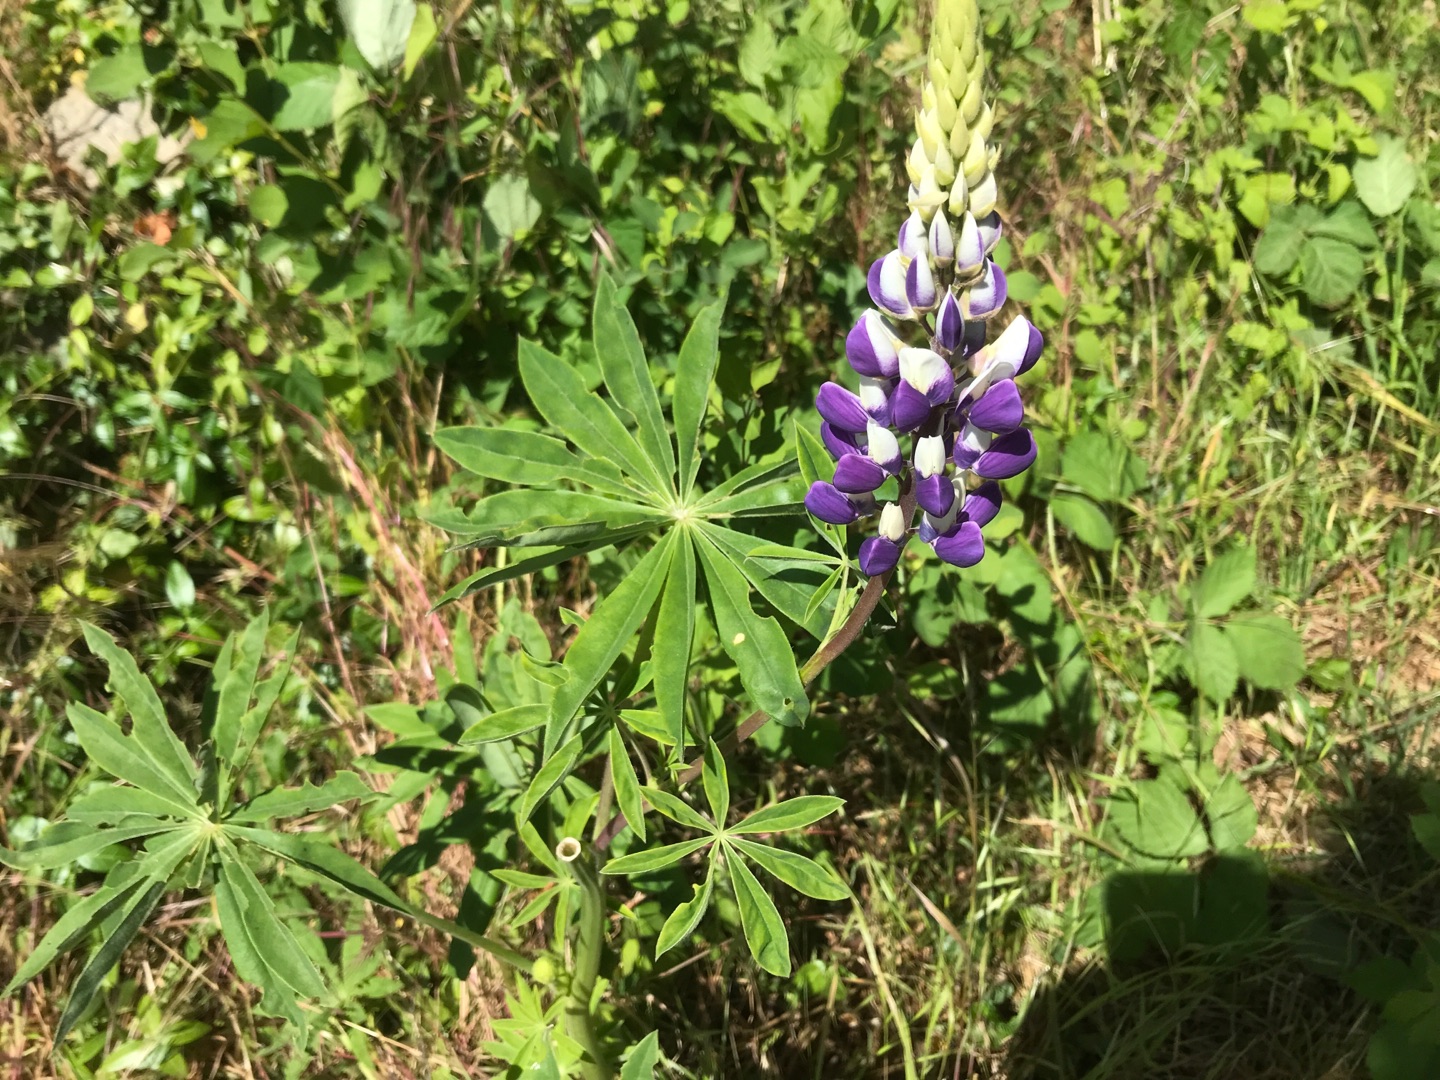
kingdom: Plantae
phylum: Tracheophyta
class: Magnoliopsida
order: Fabales
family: Fabaceae
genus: Lupinus
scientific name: Lupinus polyphyllus
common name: Mangebladet lupin
